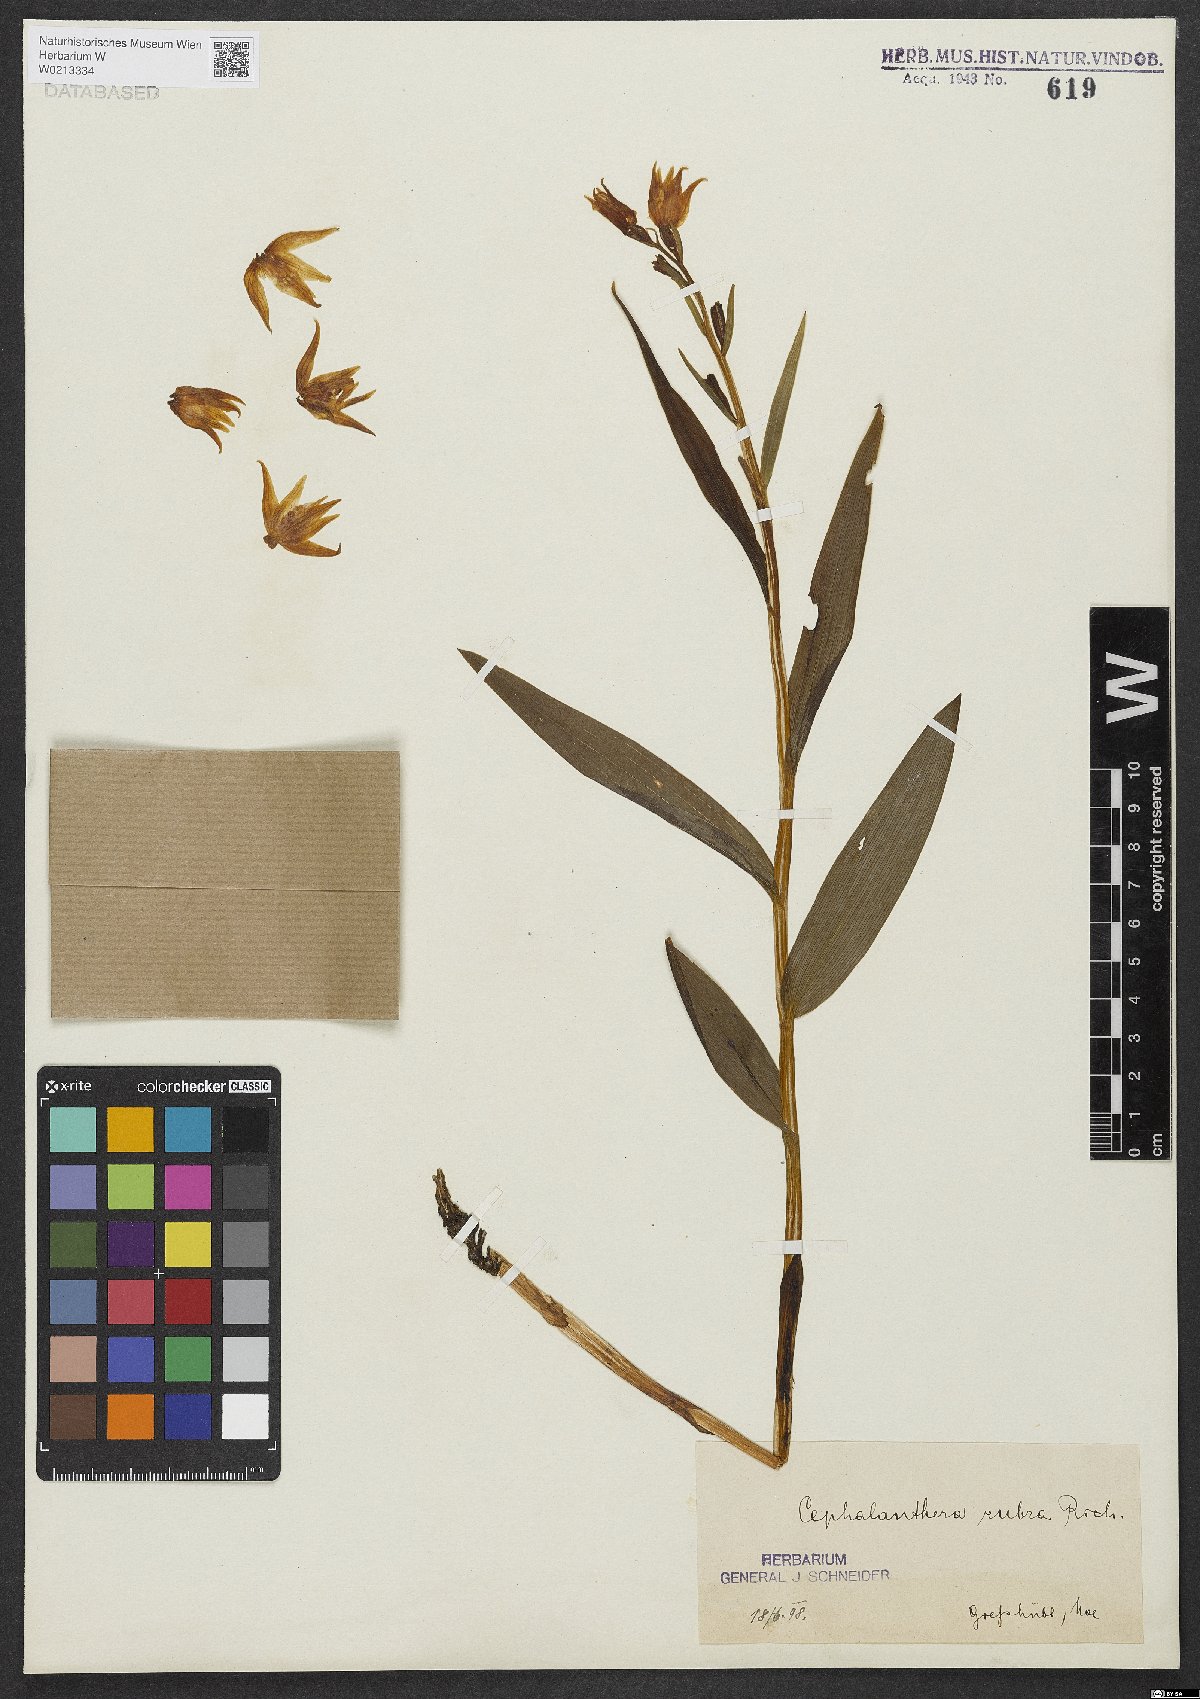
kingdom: Plantae
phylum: Tracheophyta
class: Liliopsida
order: Asparagales
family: Orchidaceae
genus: Cephalanthera
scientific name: Cephalanthera rubra
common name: Red helleborine
